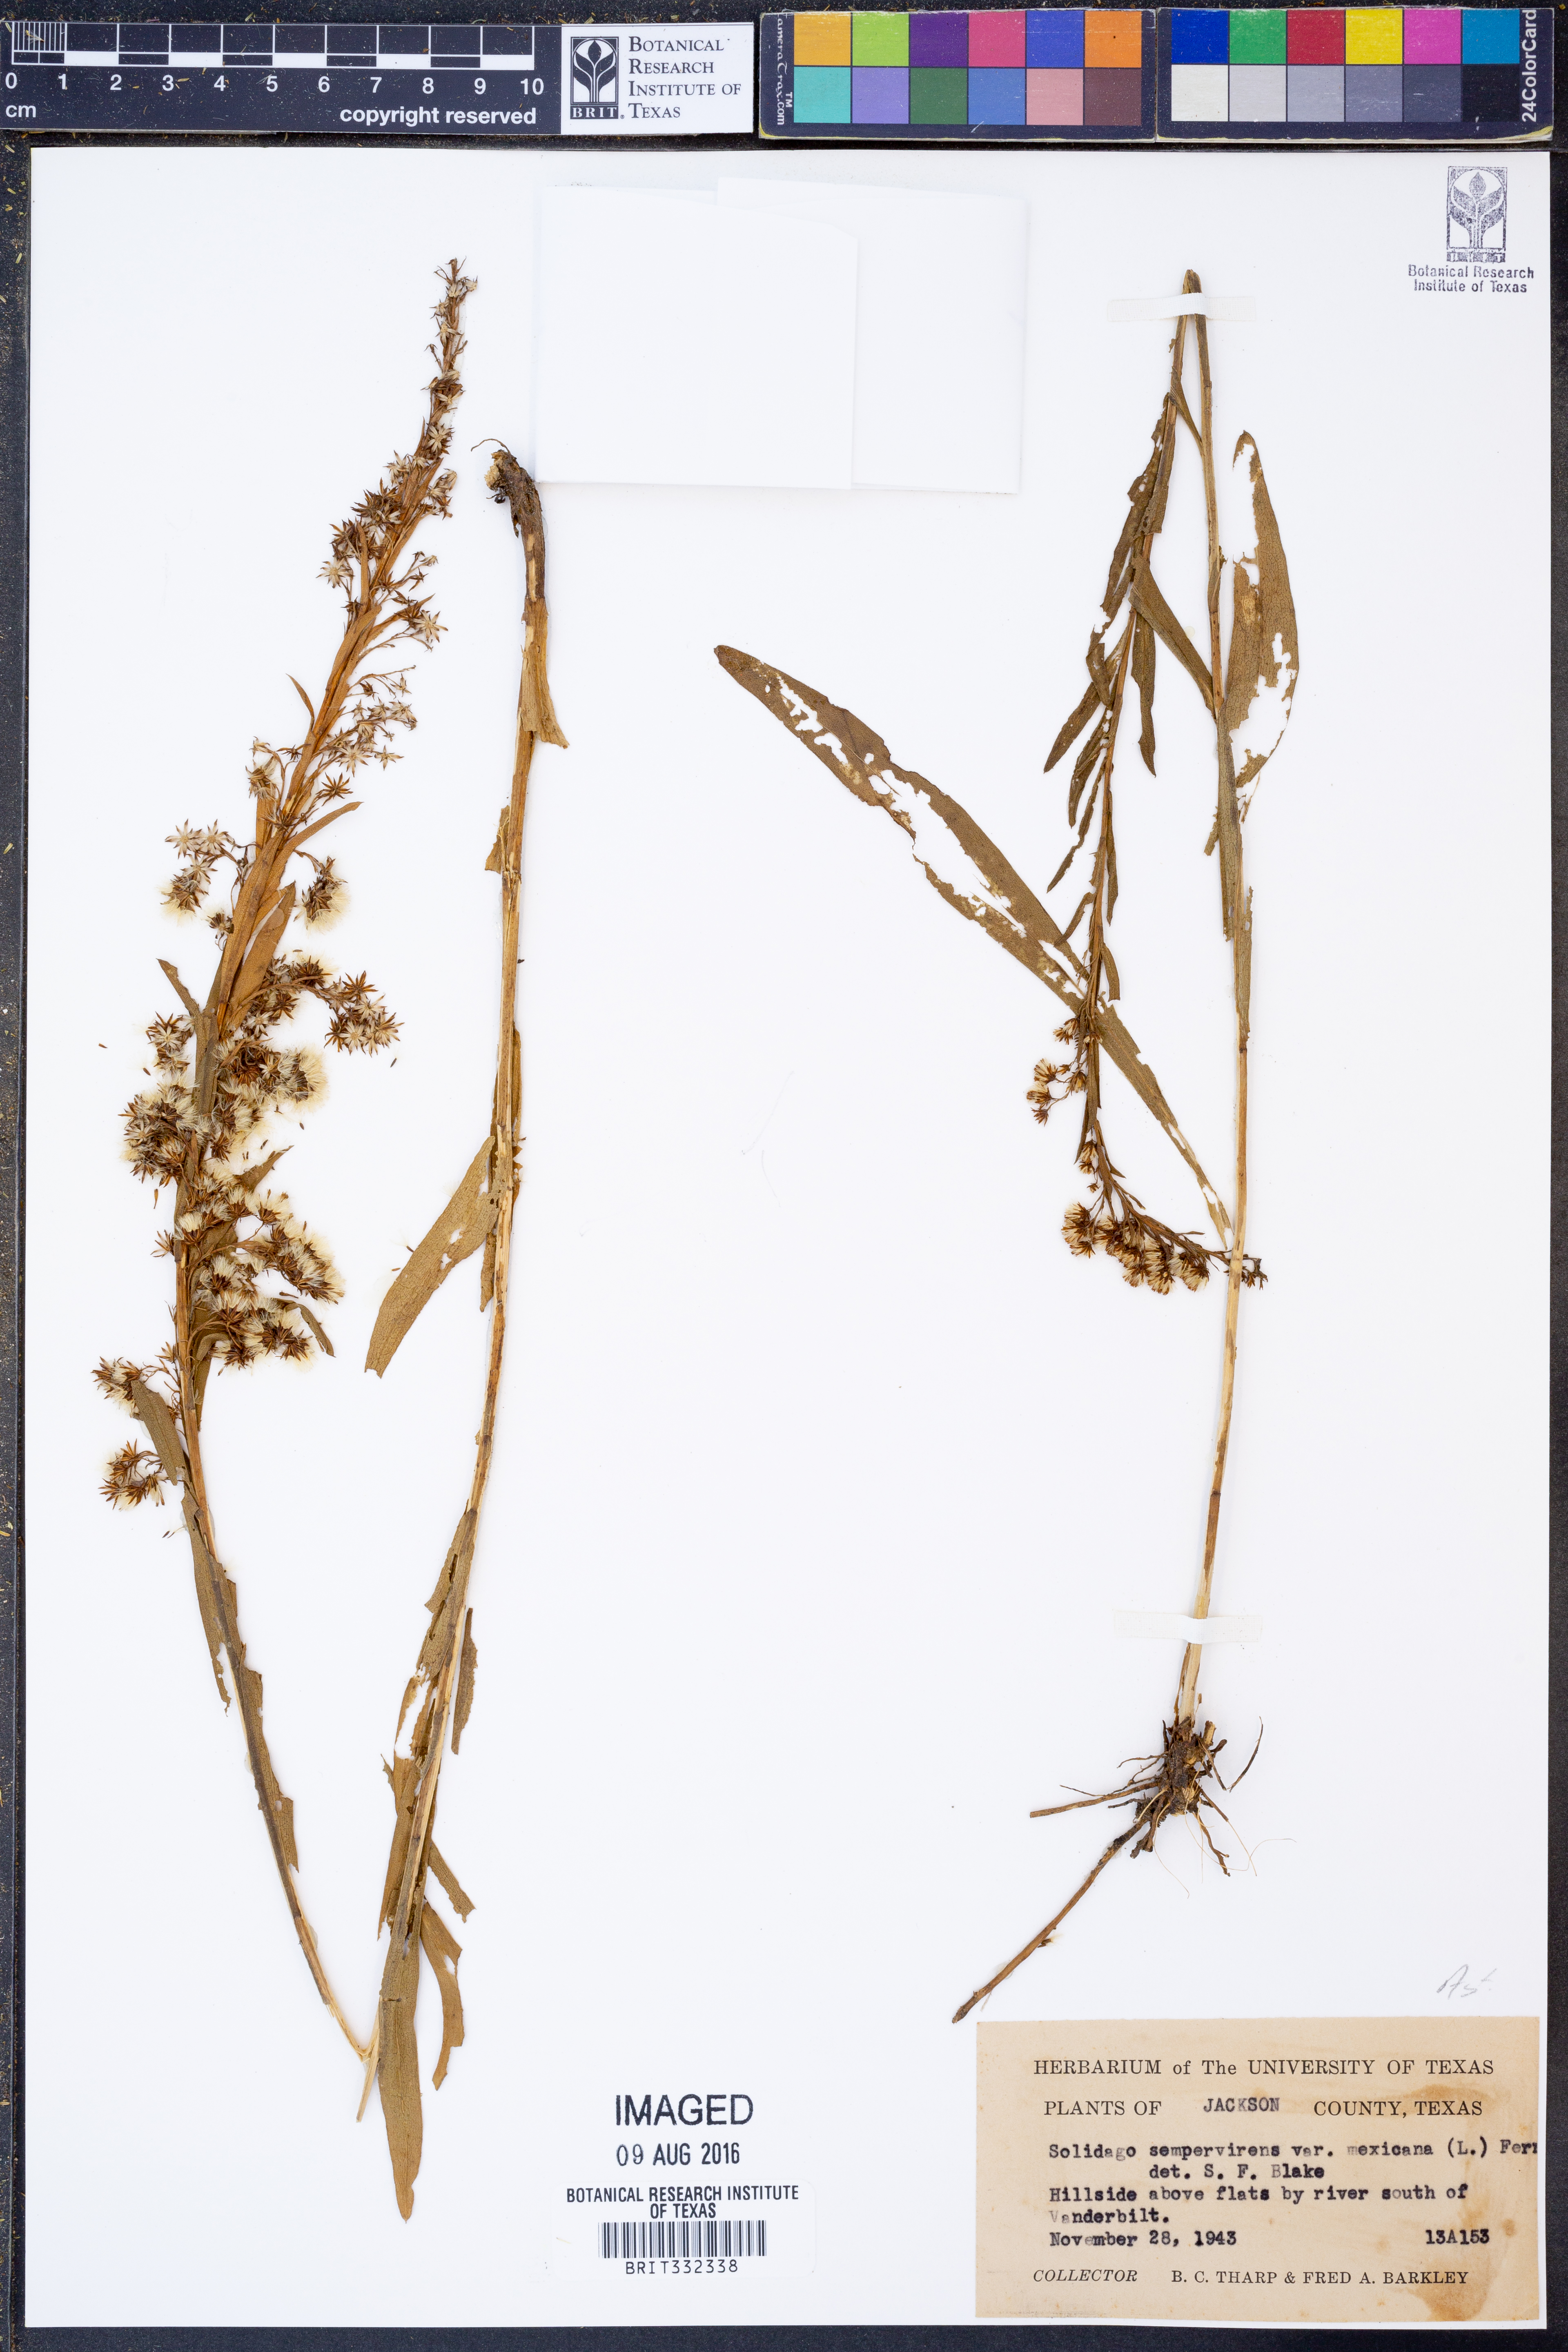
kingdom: Plantae
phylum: Tracheophyta
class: Magnoliopsida
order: Asterales
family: Asteraceae
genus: Solidago
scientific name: Solidago mexicana
